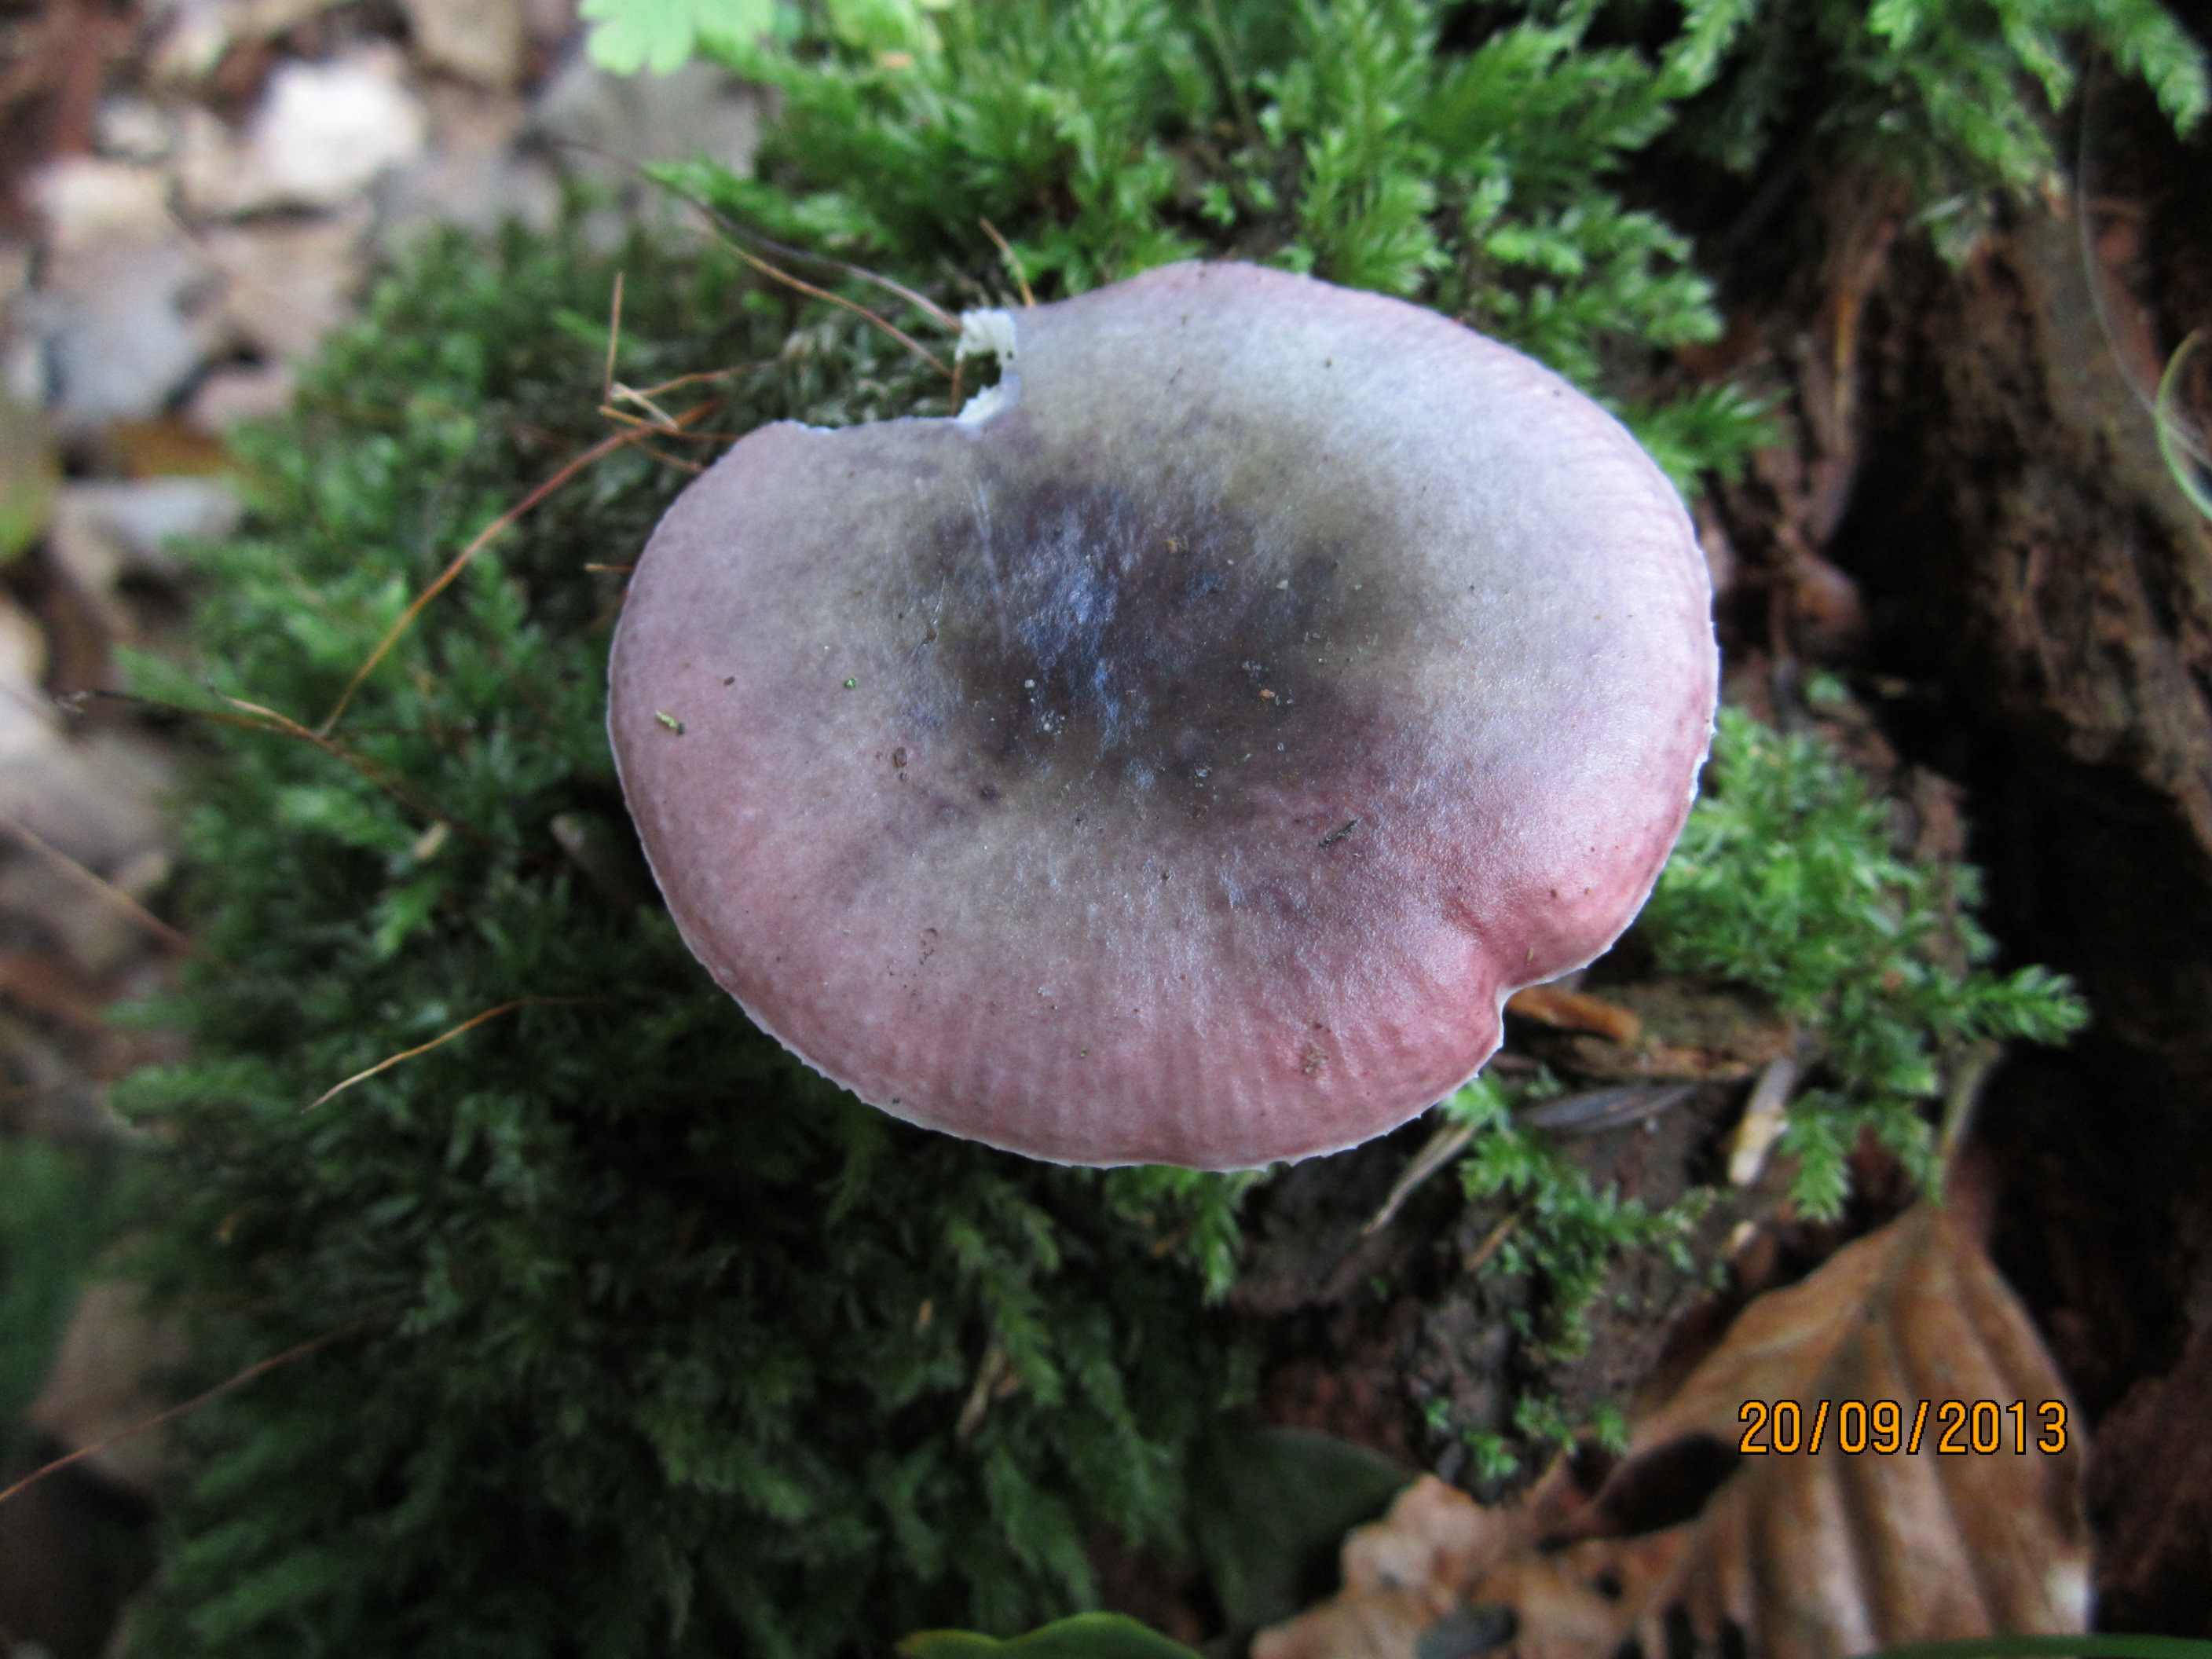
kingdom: Fungi
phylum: Basidiomycota
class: Agaricomycetes
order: Russulales
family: Russulaceae
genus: Russula
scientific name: Russula fragilis
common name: Fragile brittlegill
